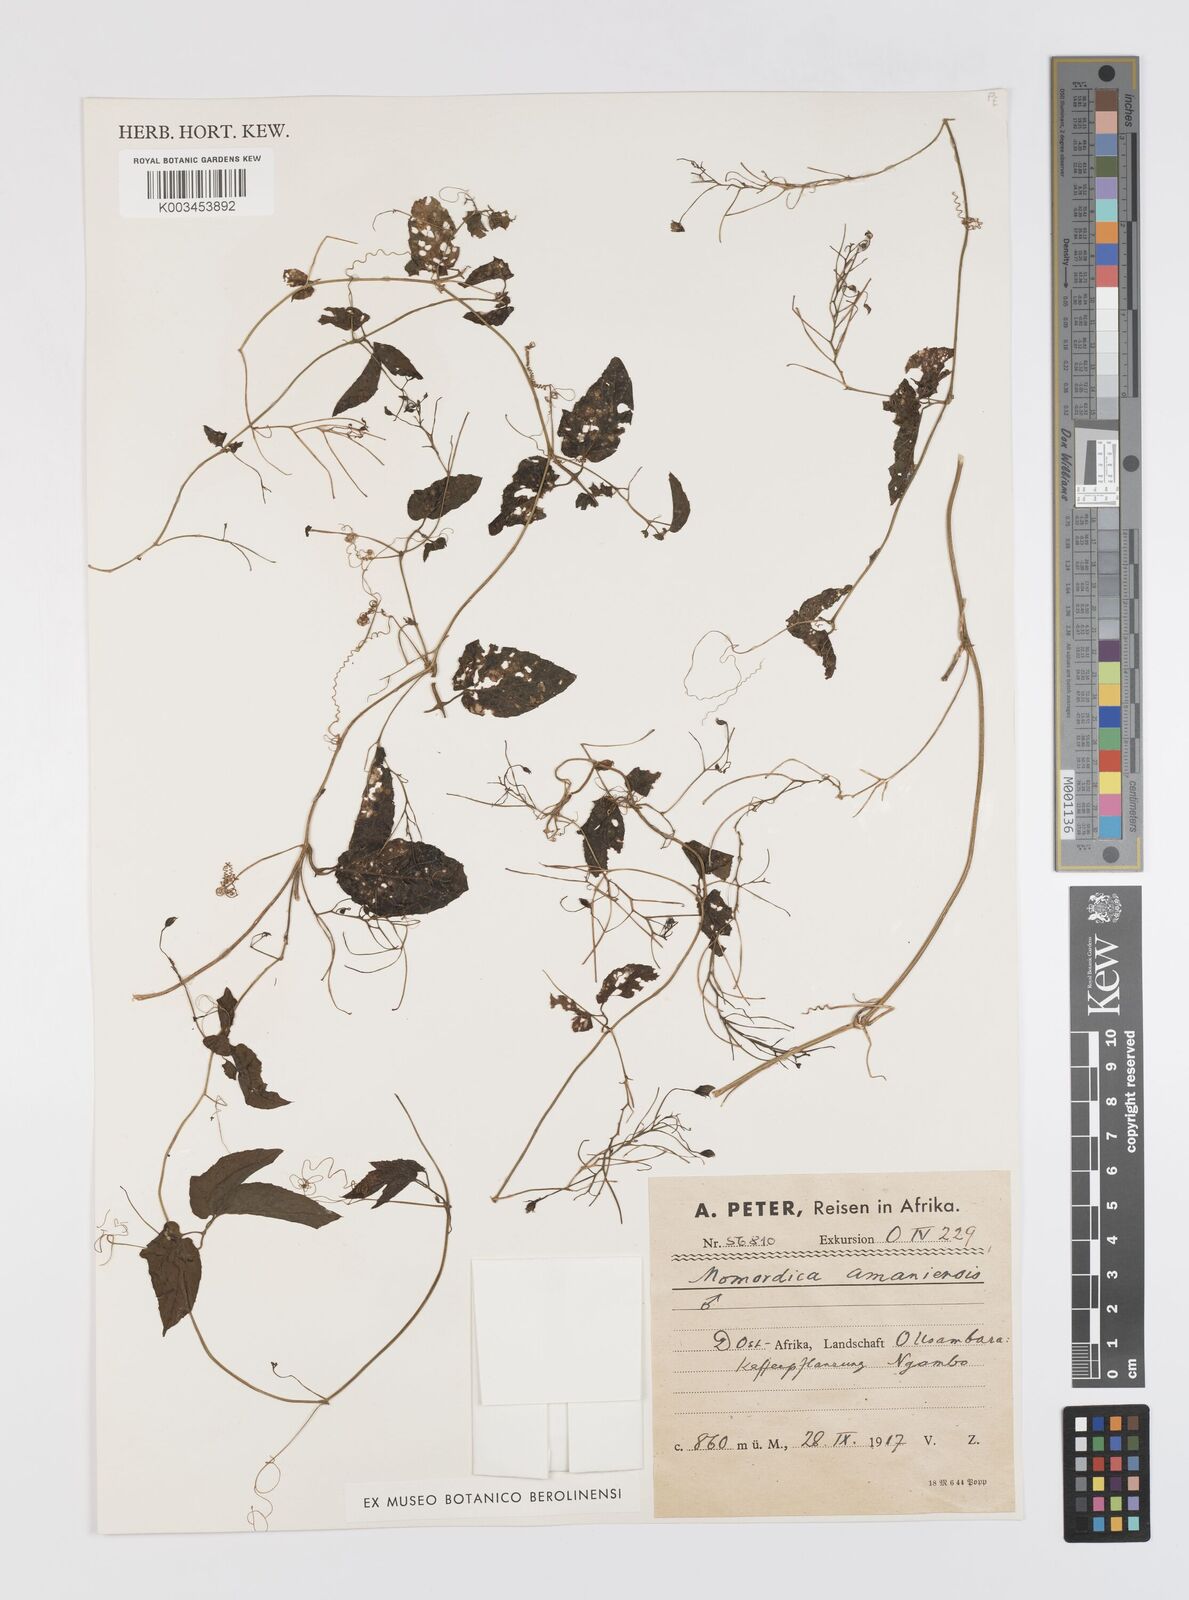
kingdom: Plantae
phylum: Tracheophyta
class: Magnoliopsida
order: Cucurbitales
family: Cucurbitaceae
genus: Momordica
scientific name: Momordica anigosantha
